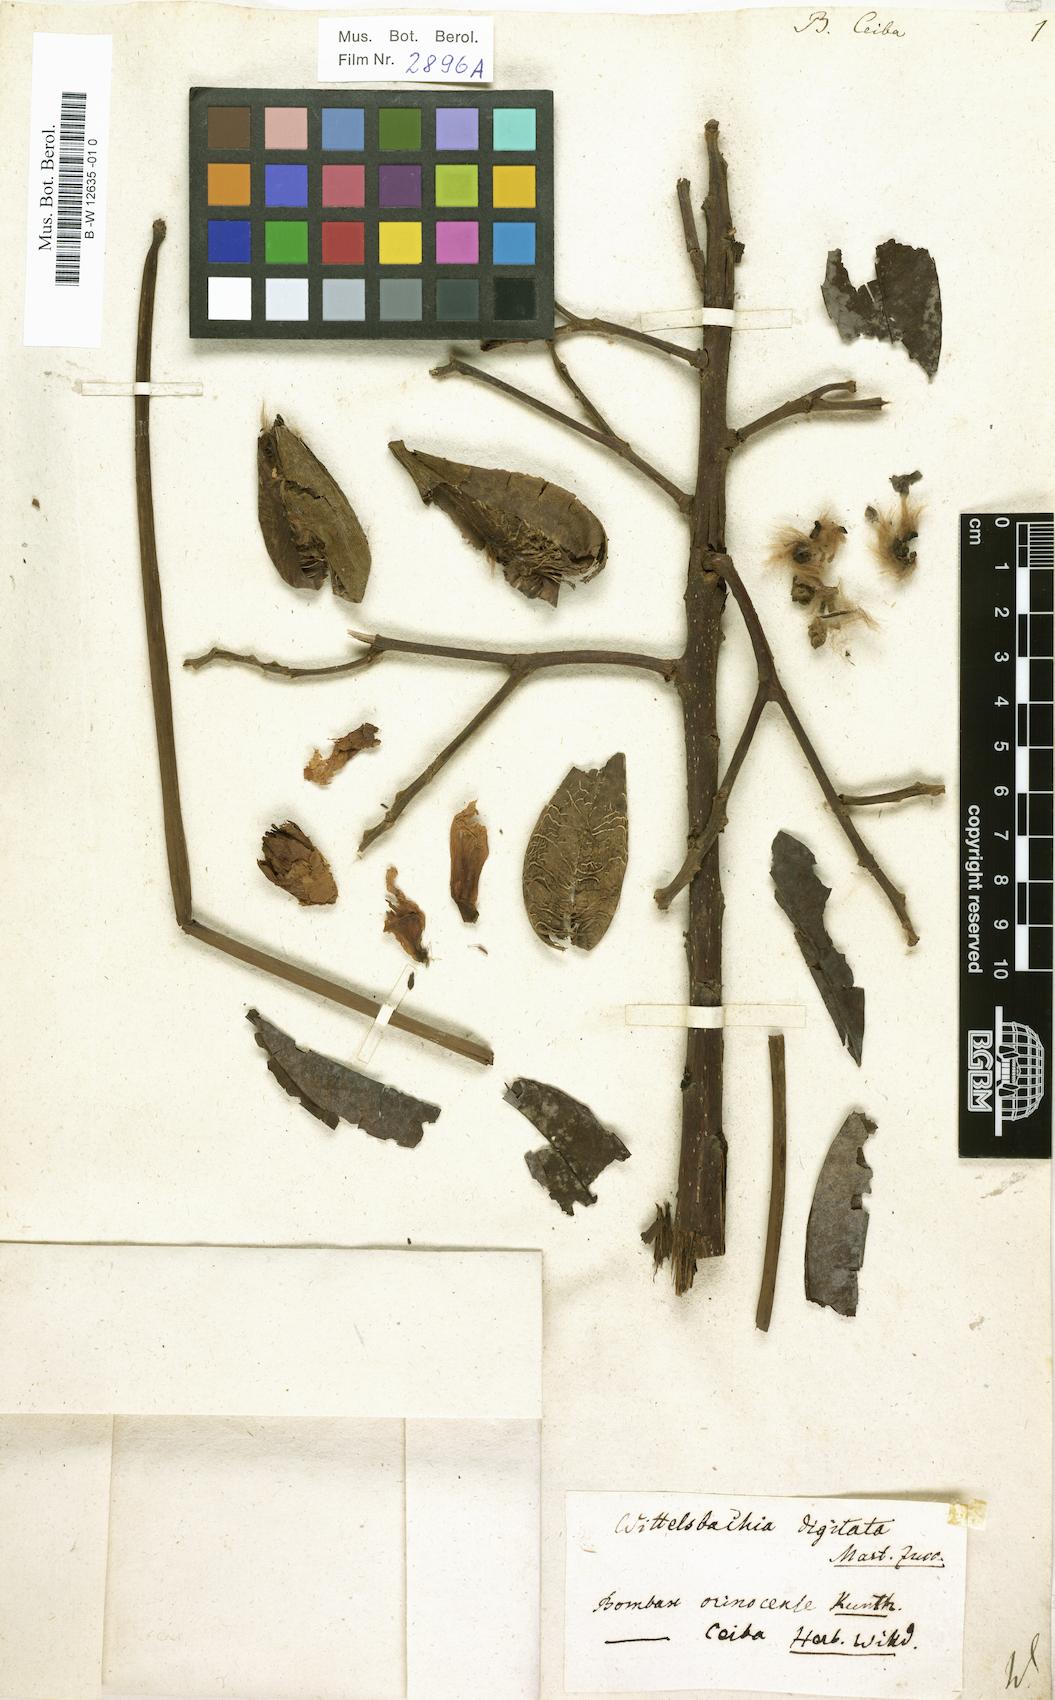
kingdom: Plantae
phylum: Tracheophyta
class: Magnoliopsida
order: Malvales
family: Malvaceae
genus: Bombax
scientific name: Bombax ceiba
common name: Northern-cottonwood
